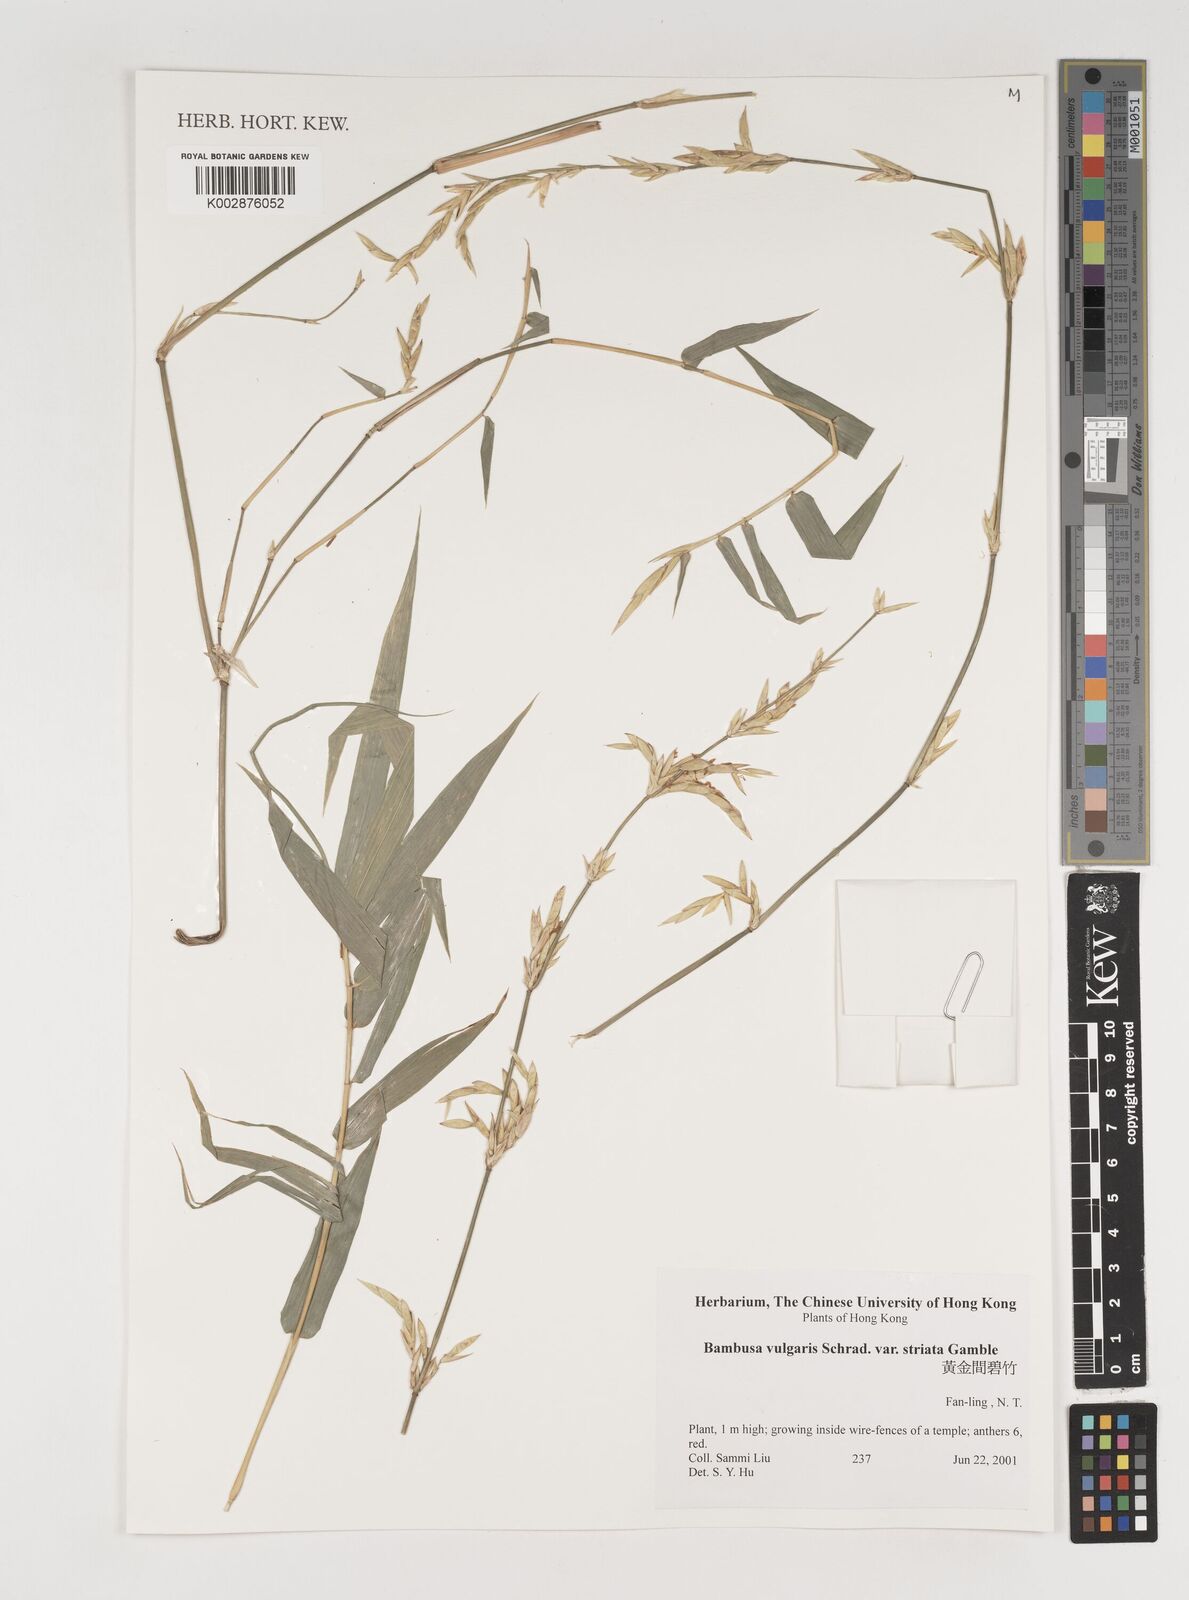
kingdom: Plantae
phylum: Tracheophyta
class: Liliopsida
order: Poales
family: Poaceae
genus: Bambusa
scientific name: Bambusa vulgaris
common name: Common bamboo
